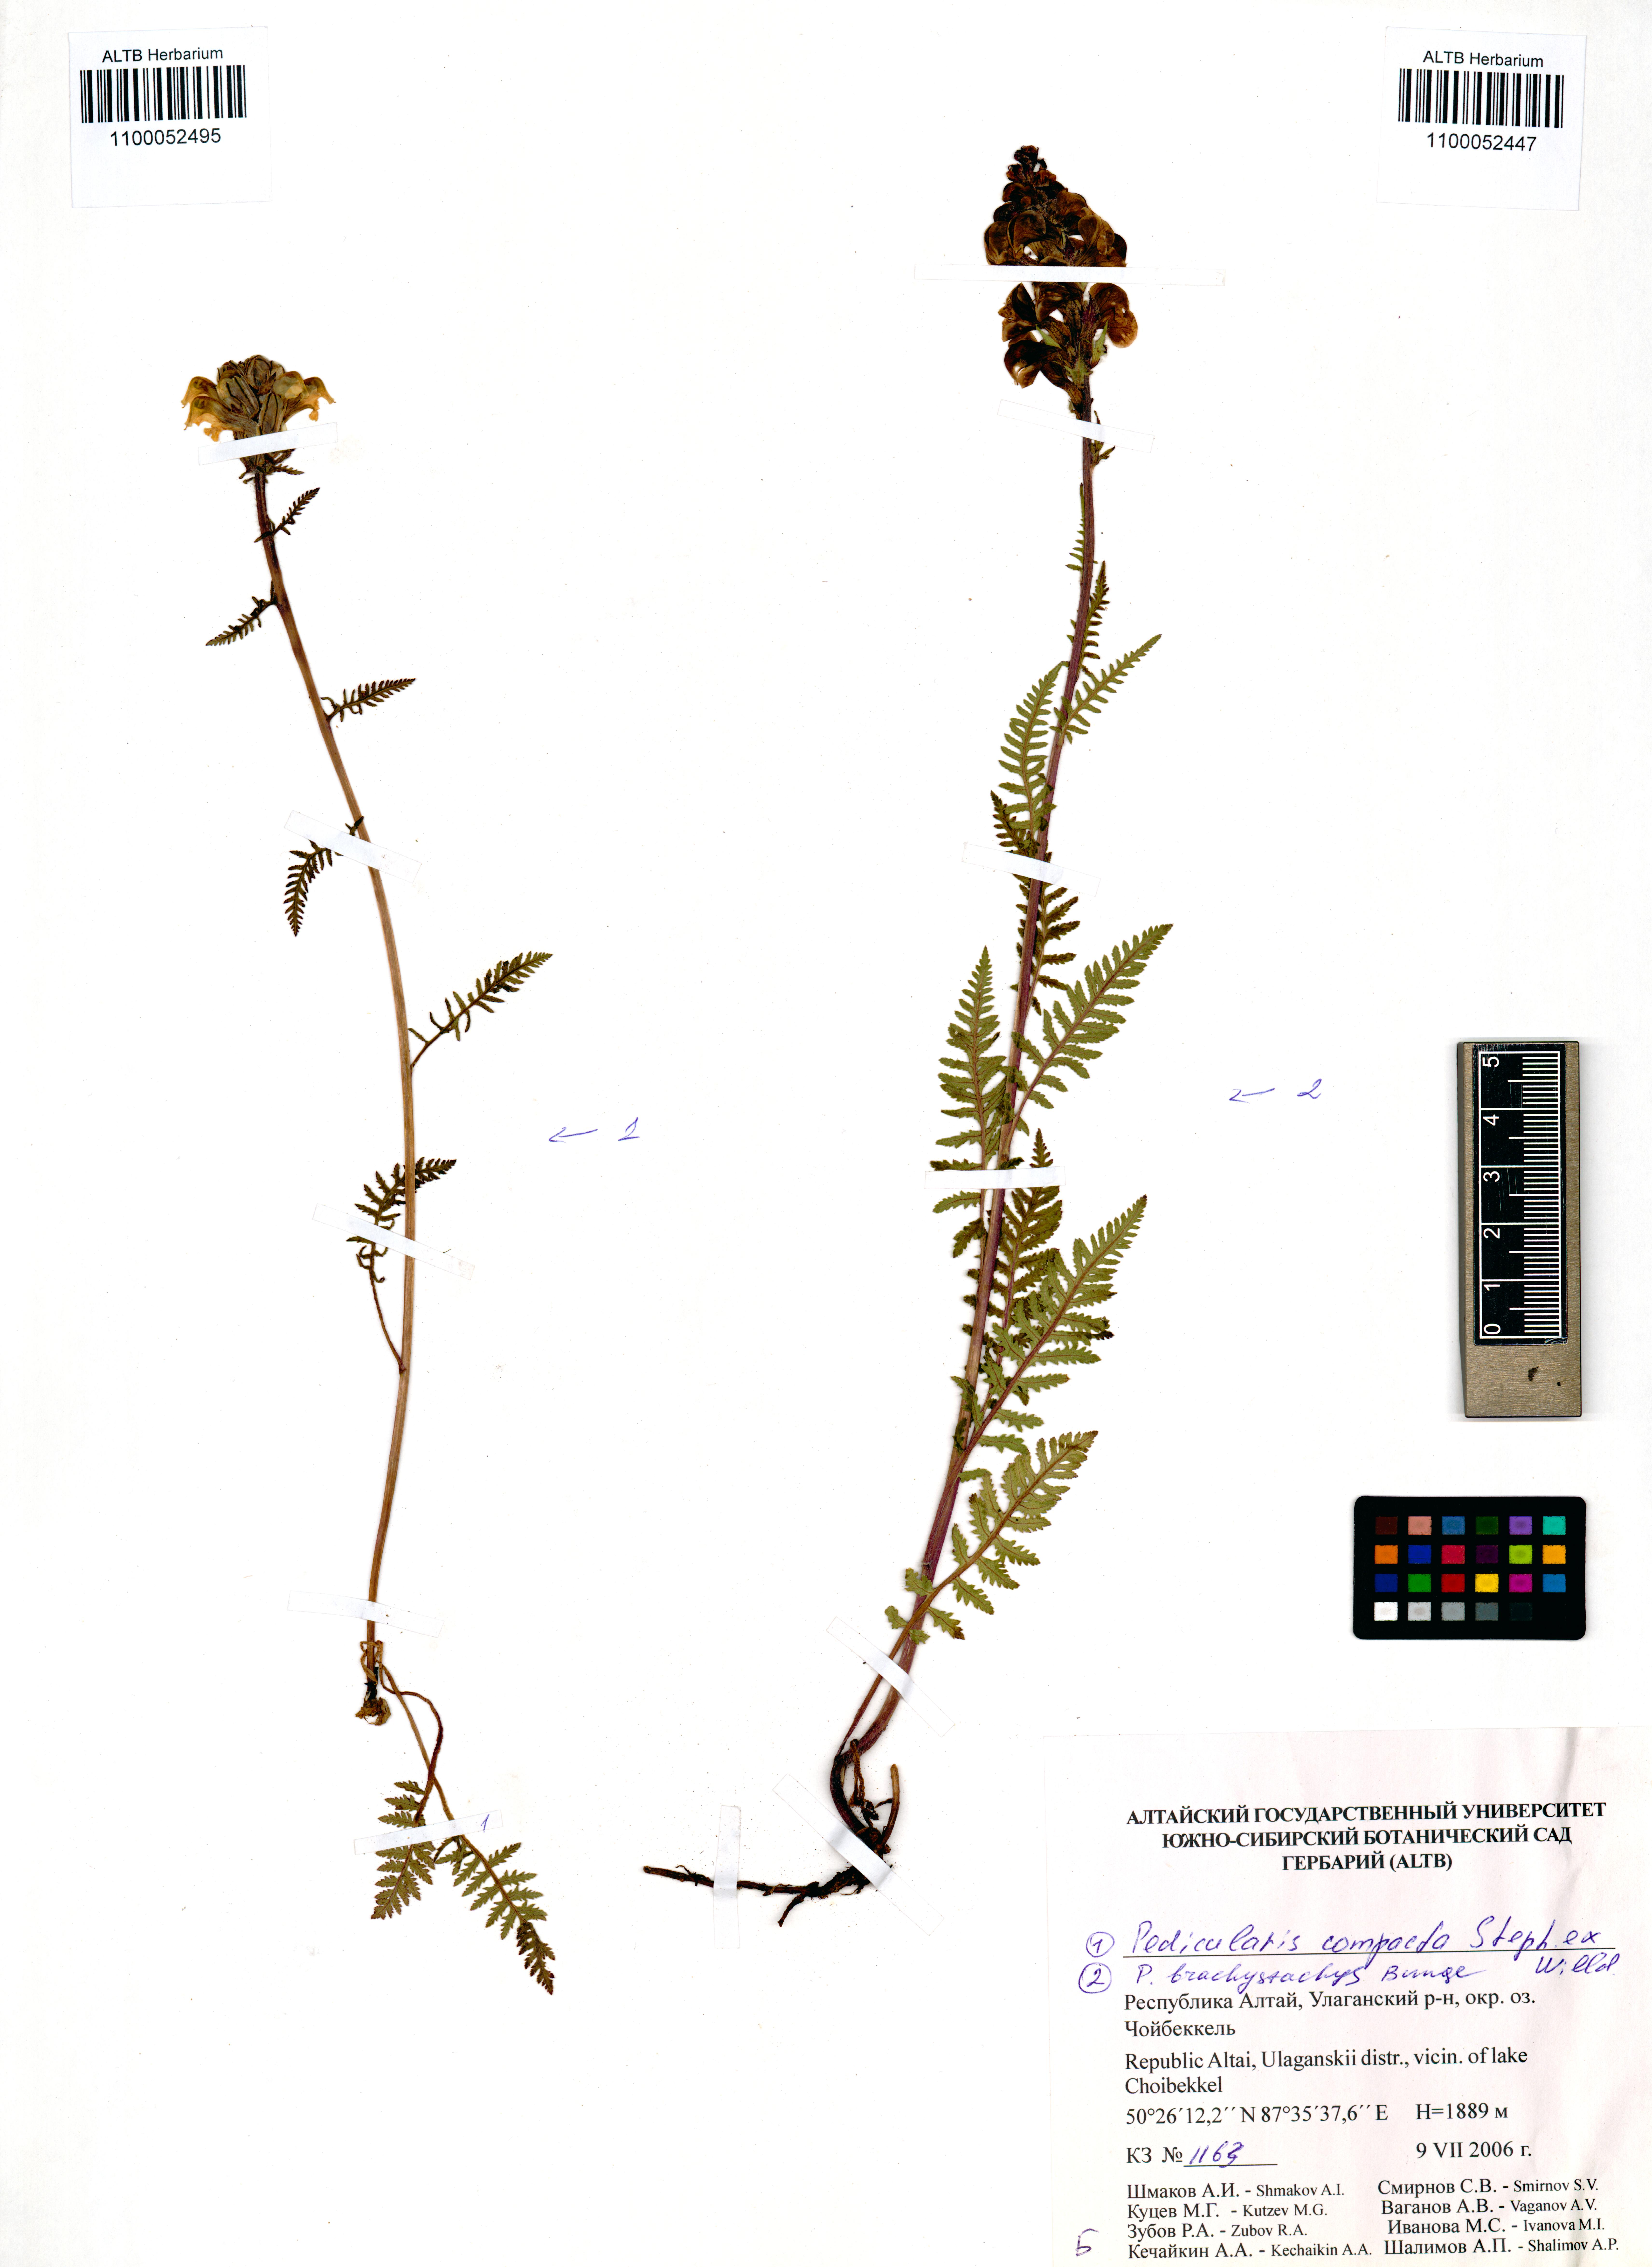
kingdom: Plantae
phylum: Tracheophyta
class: Magnoliopsida
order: Lamiales
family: Orobanchaceae
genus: Pedicularis
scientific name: Pedicularis compacta
